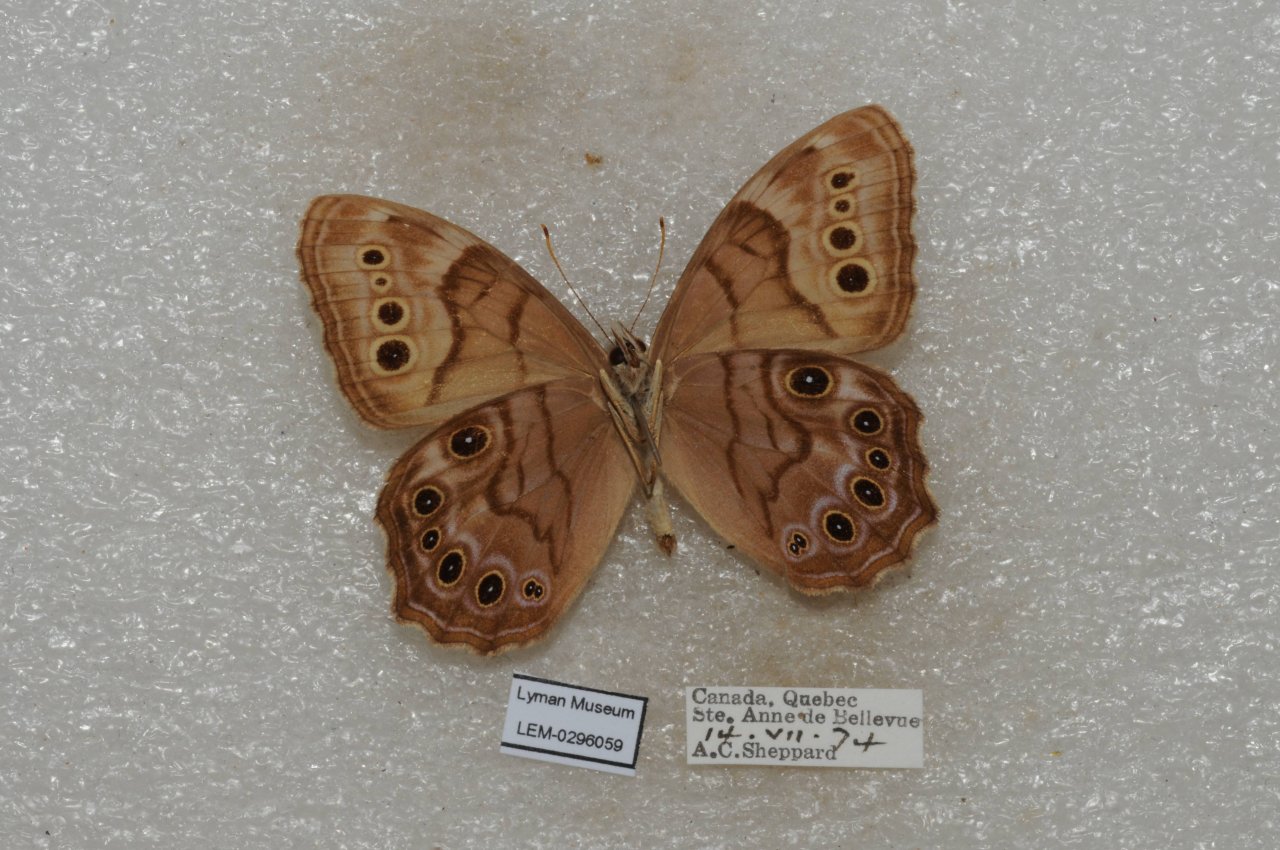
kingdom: Animalia
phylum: Arthropoda
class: Insecta
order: Lepidoptera
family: Nymphalidae
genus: Lethe
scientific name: Lethe anthedon
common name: Northern Pearly-Eye
